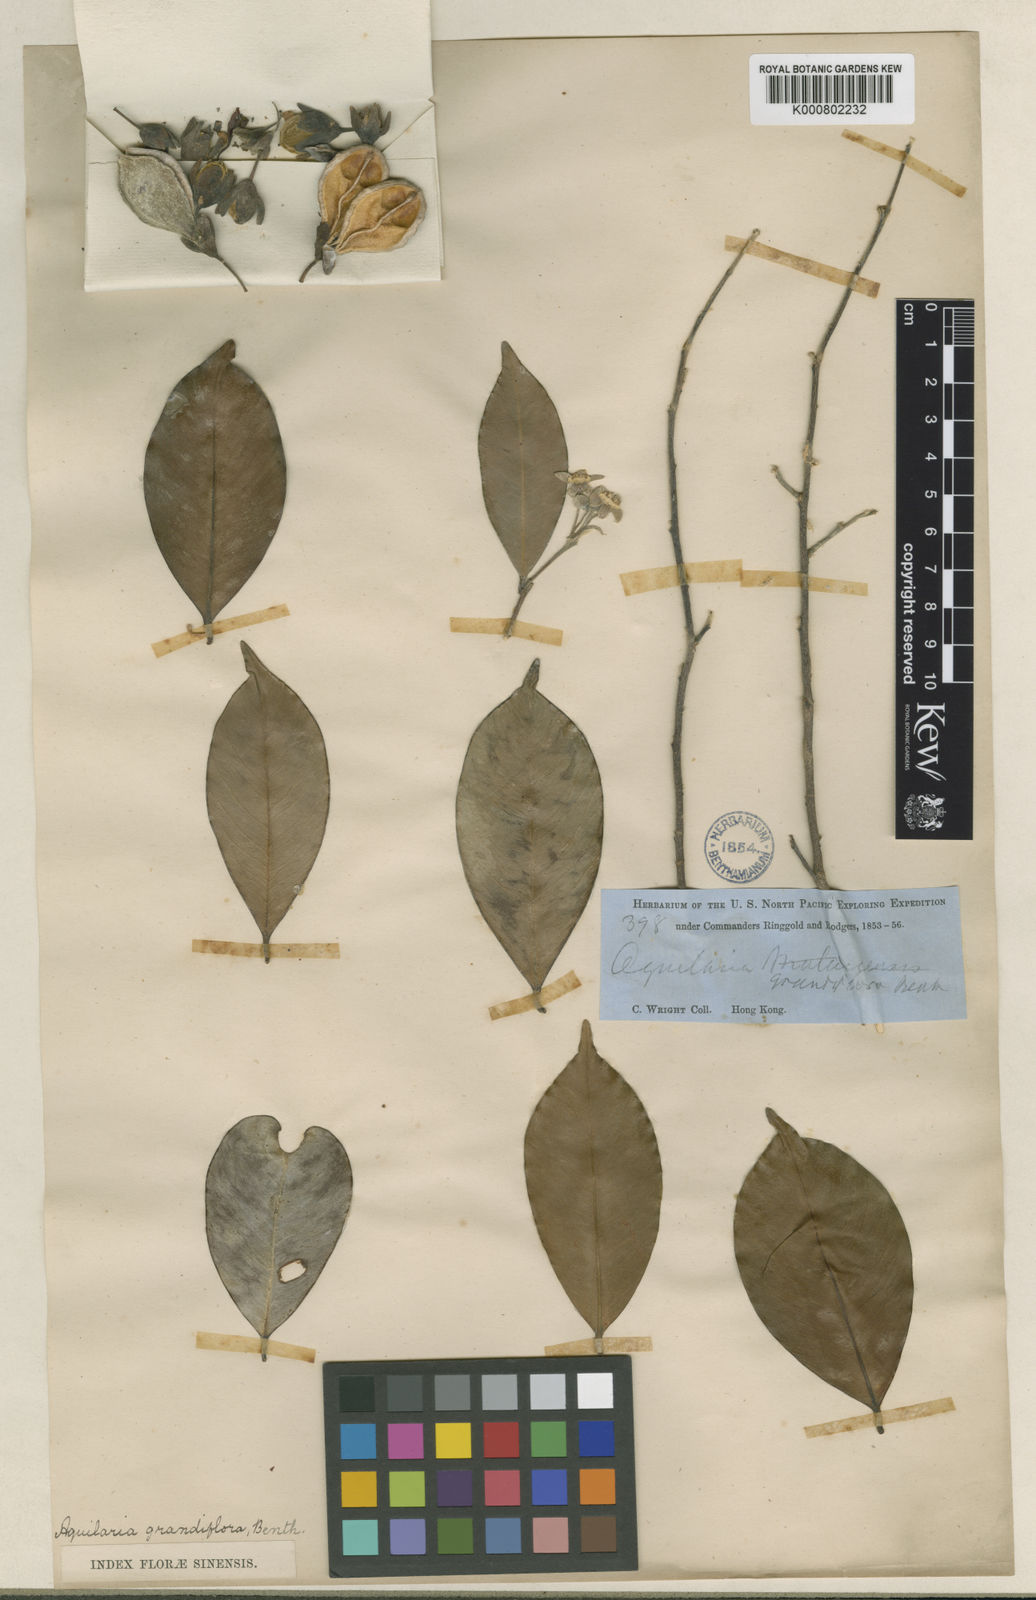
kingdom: Plantae
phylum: Tracheophyta
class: Magnoliopsida
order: Malvales
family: Thymelaeaceae
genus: Aquilaria
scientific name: Aquilaria sinensis
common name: Chinese agarwood
